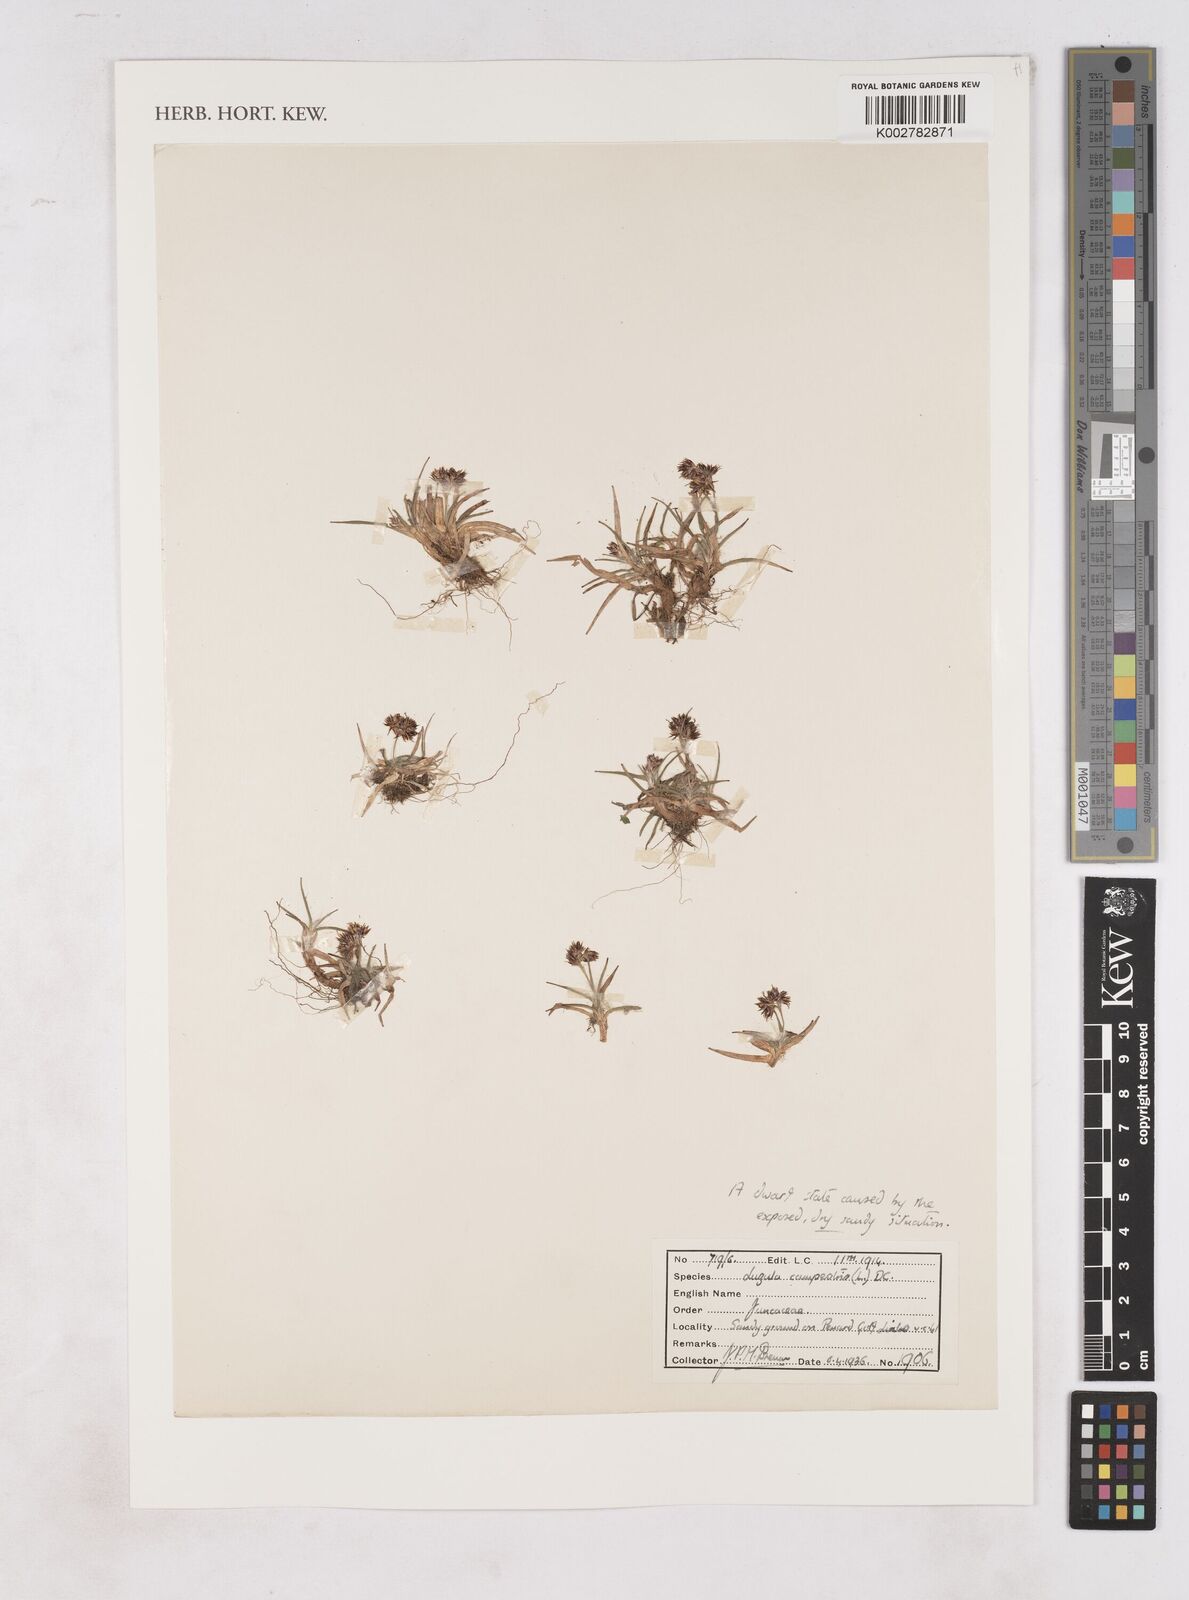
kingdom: Plantae
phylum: Tracheophyta
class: Liliopsida
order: Poales
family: Juncaceae
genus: Luzula
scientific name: Luzula campestris
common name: Field wood-rush
